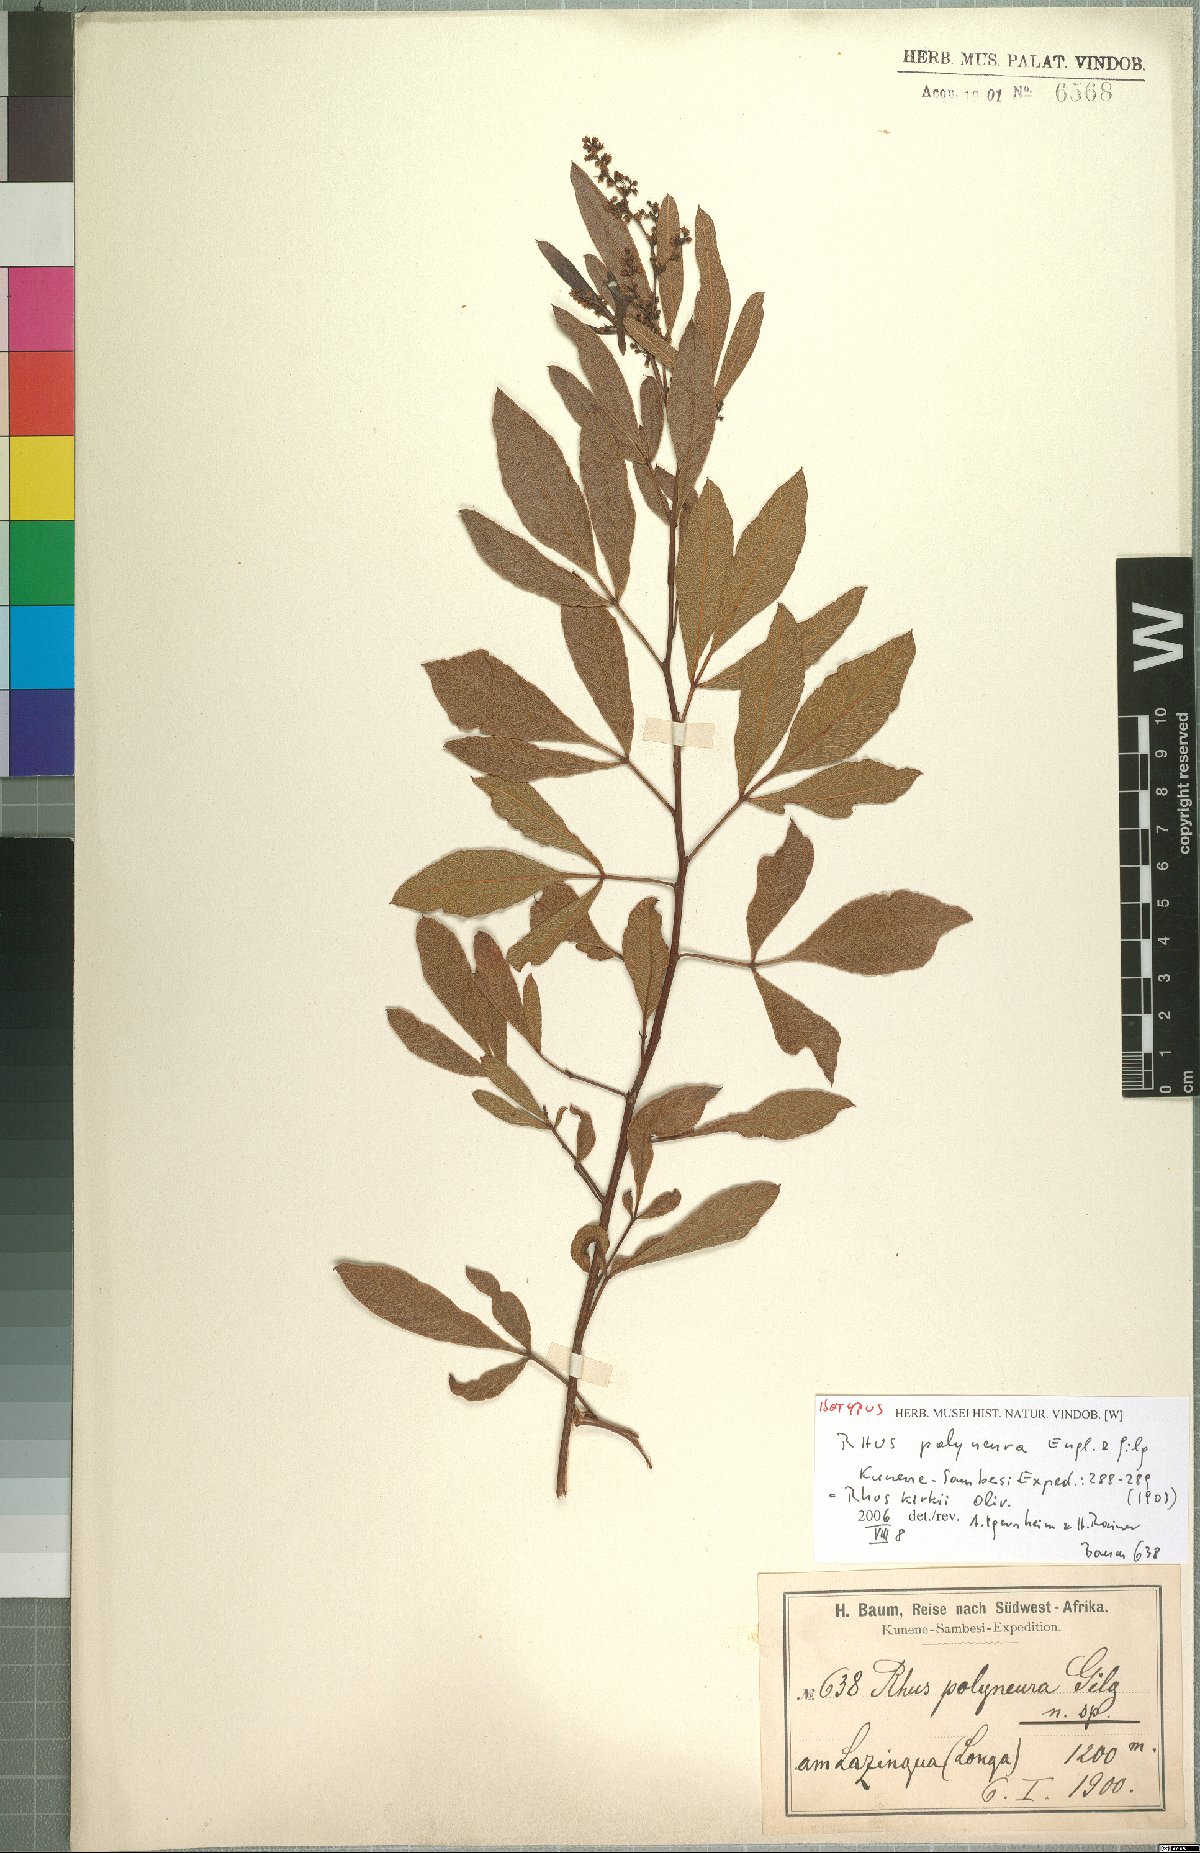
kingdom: Plantae
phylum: Tracheophyta
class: Magnoliopsida
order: Sapindales
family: Anacardiaceae
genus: Searsia
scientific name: Searsia kirkii
